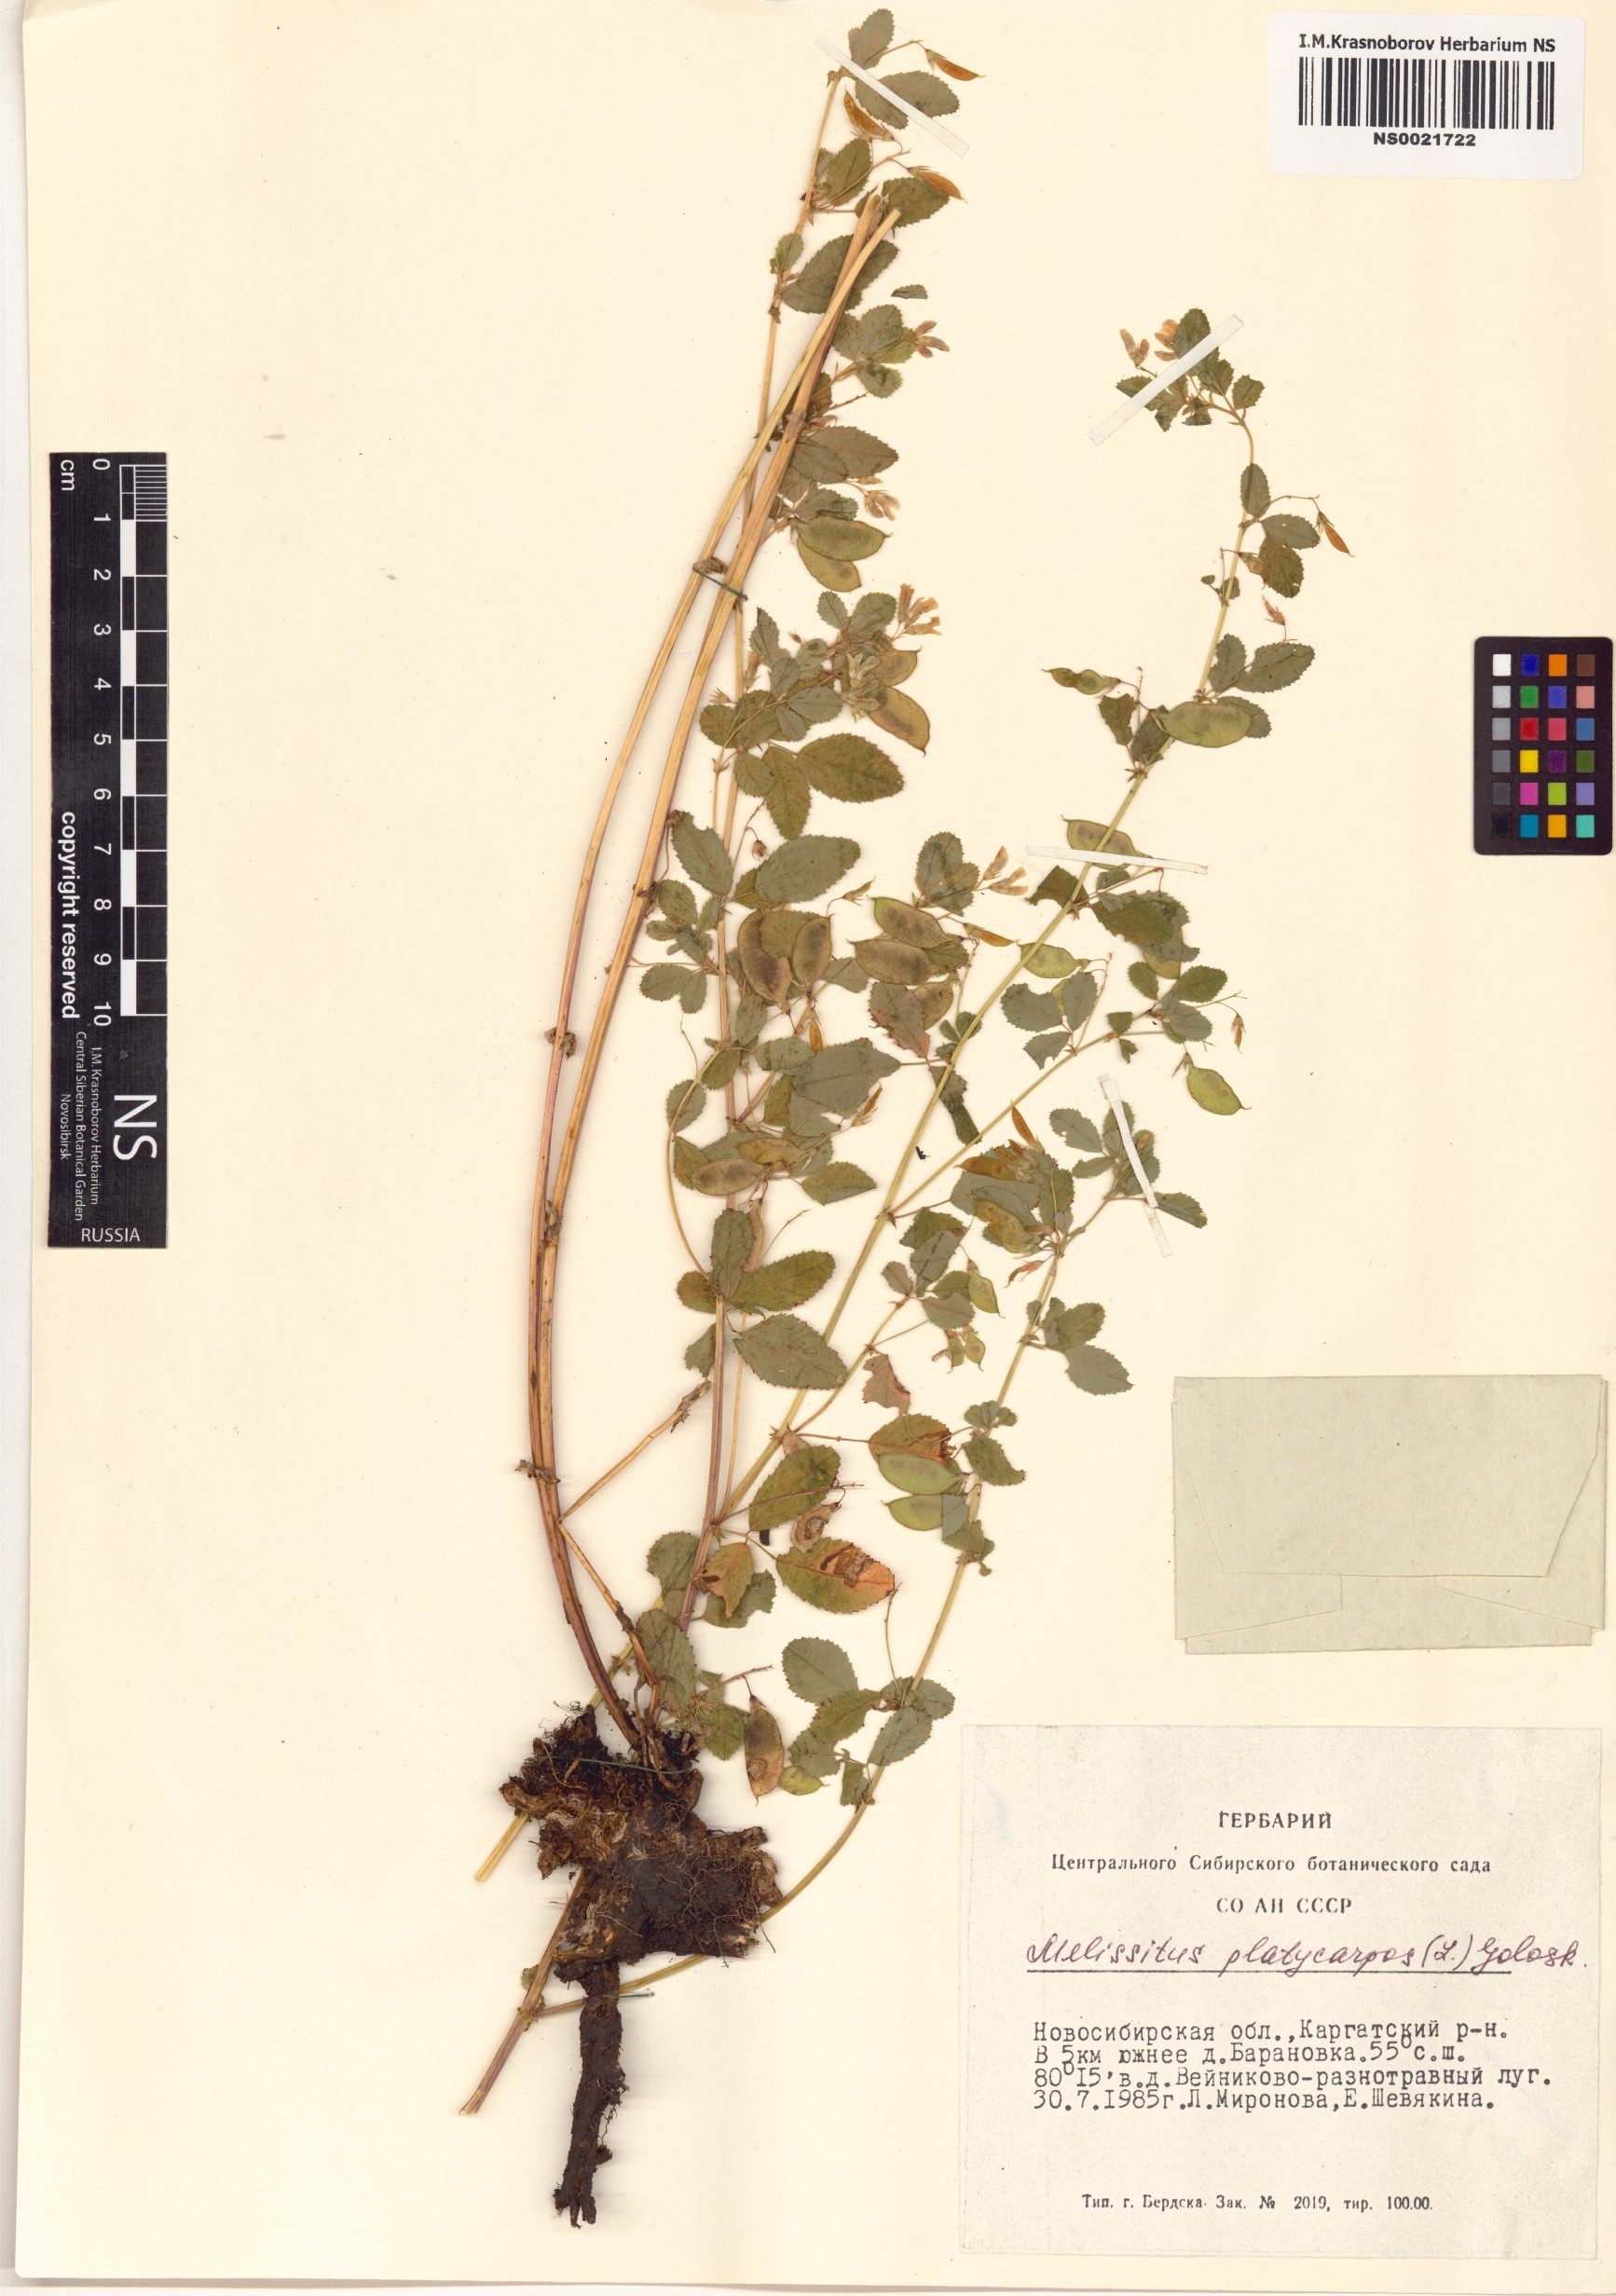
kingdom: Plantae
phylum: Tracheophyta
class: Magnoliopsida
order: Fabales
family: Fabaceae
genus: Medicago
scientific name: Medicago platycarpos
